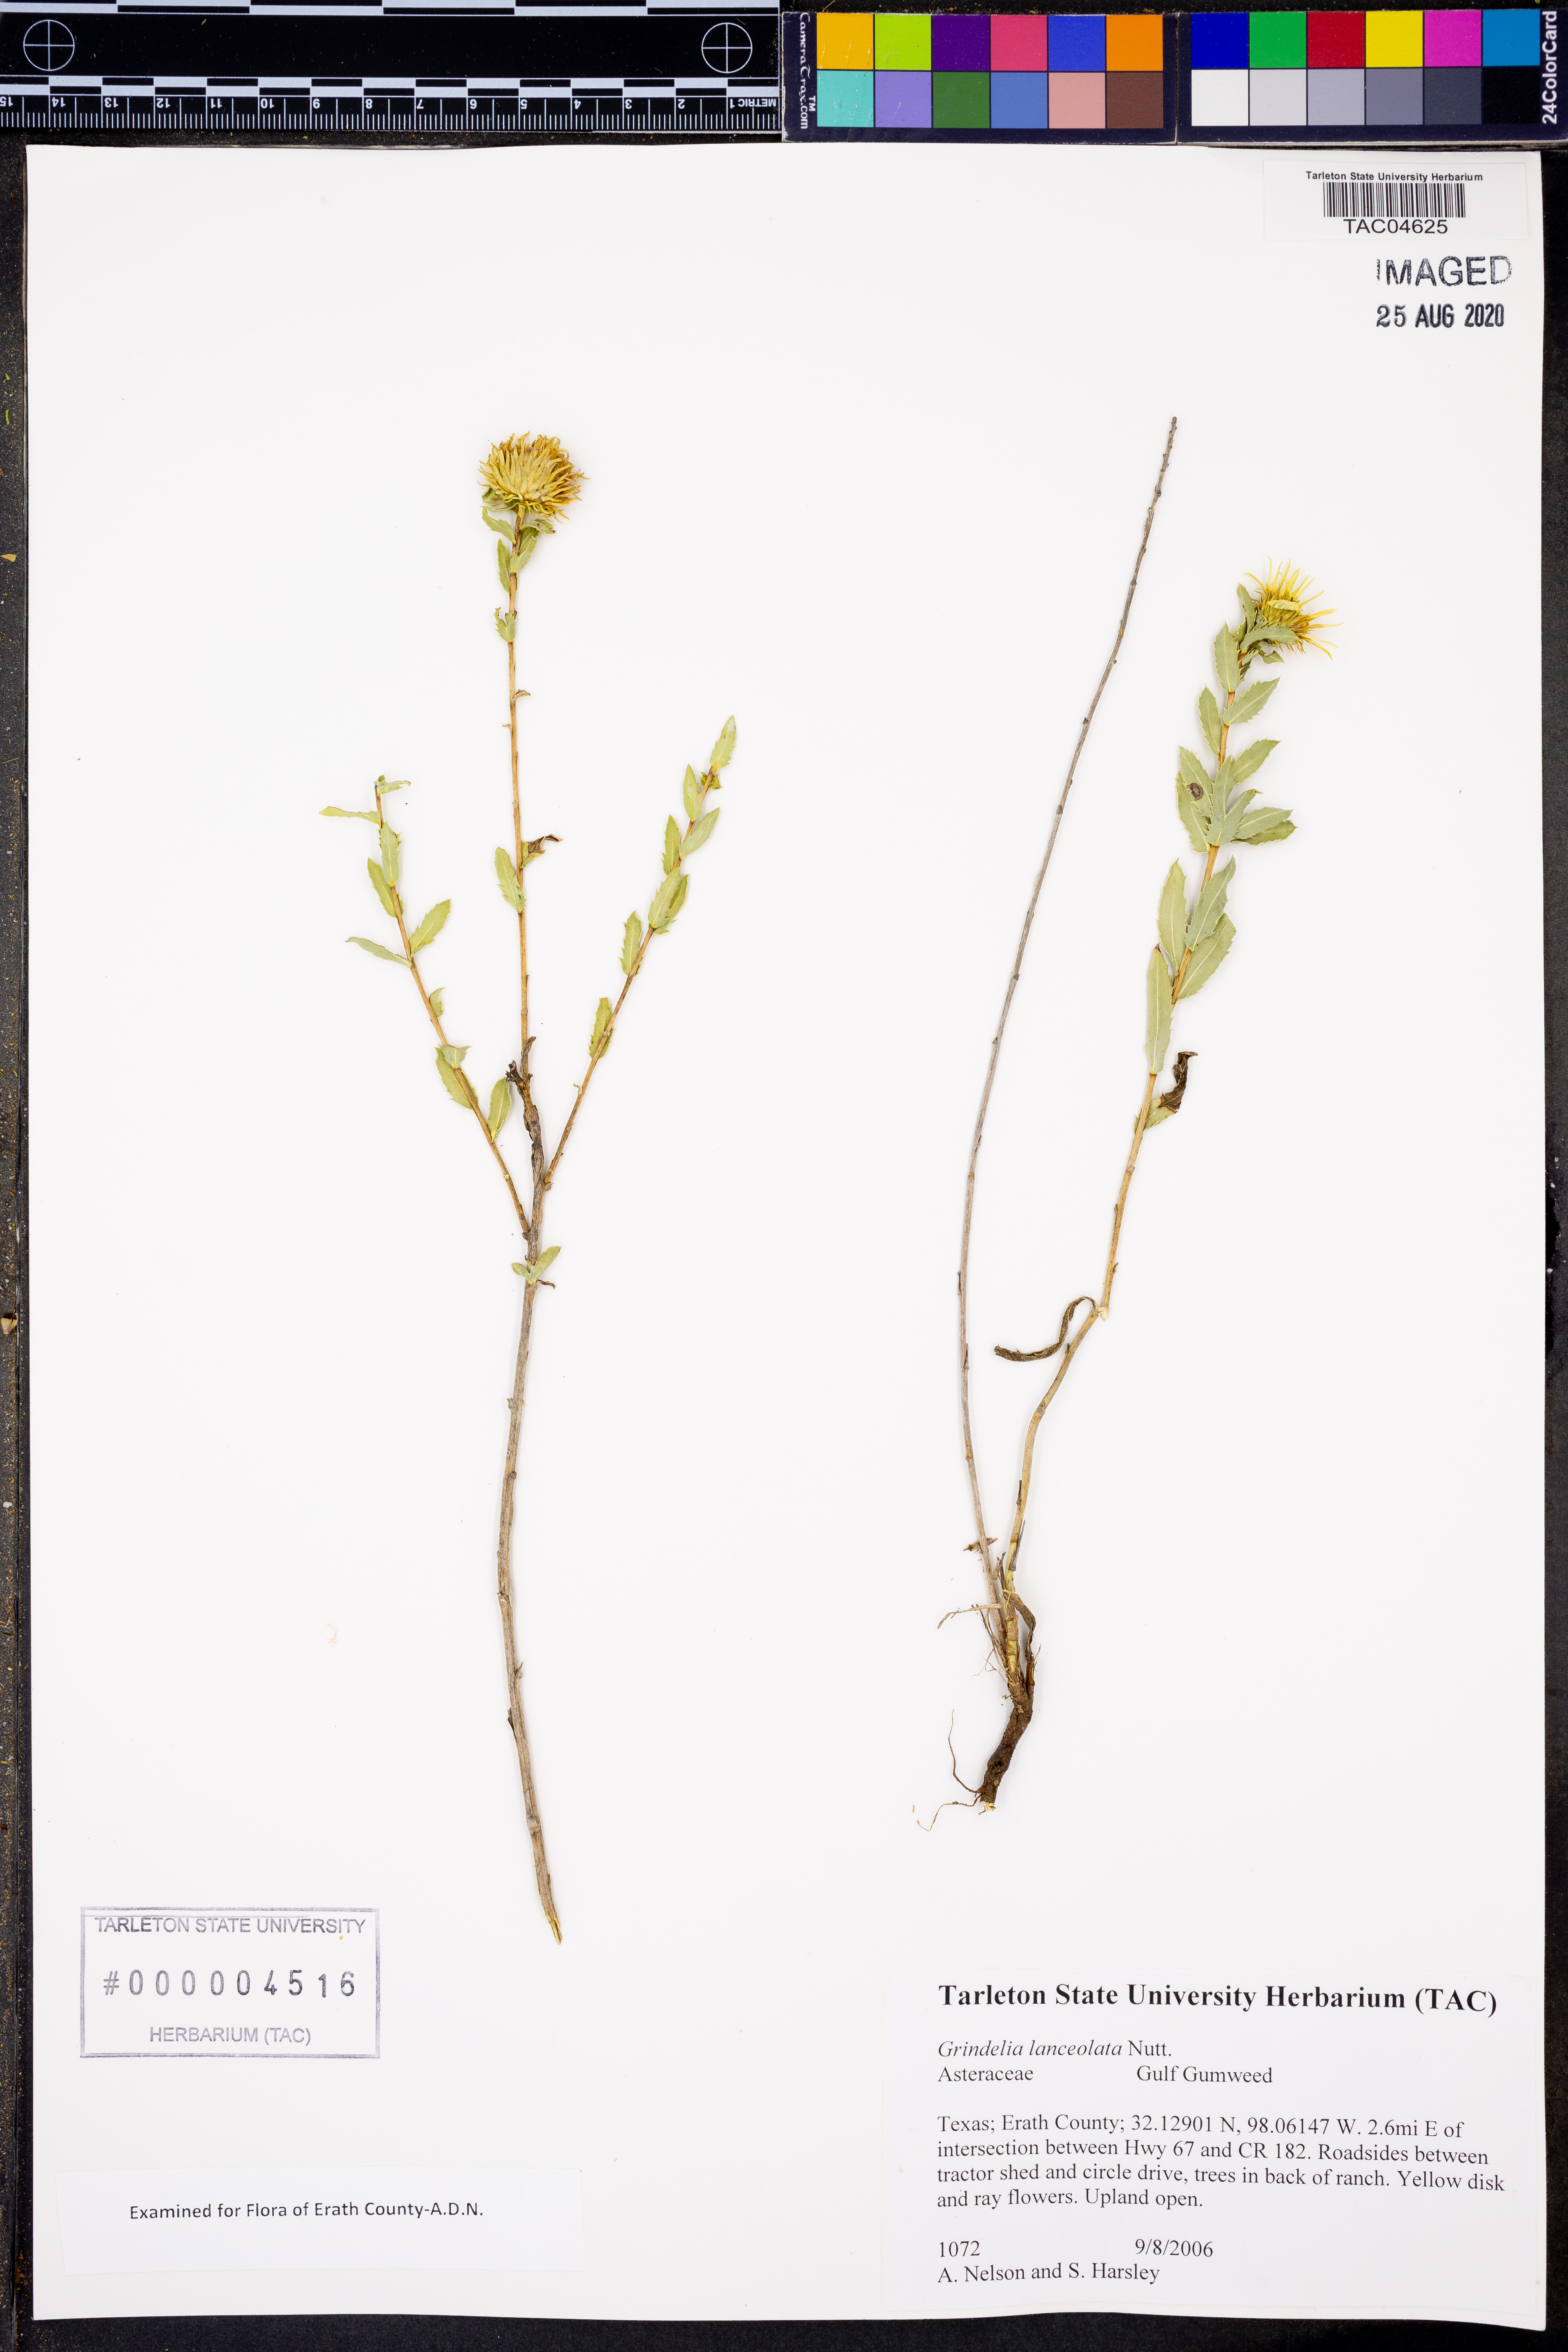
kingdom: Plantae
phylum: Tracheophyta
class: Magnoliopsida
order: Asterales
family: Asteraceae
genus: Grindelia
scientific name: Grindelia lanceolata
